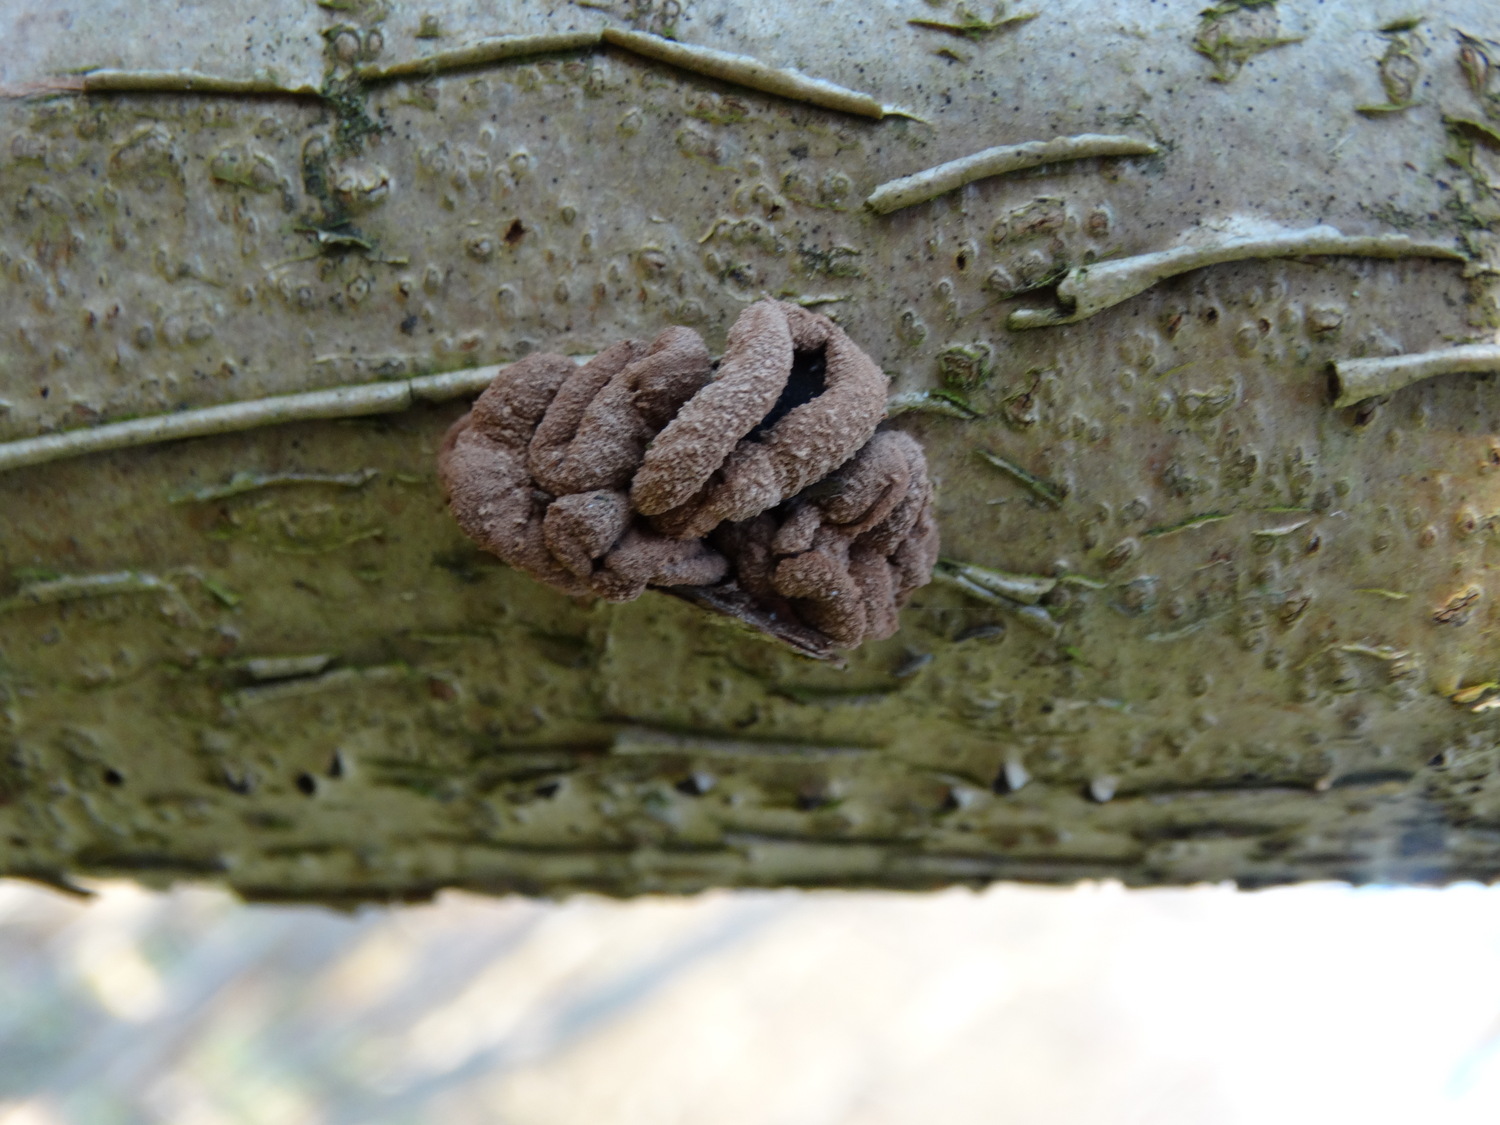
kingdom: Fungi
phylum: Ascomycota
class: Leotiomycetes
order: Helotiales
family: Cenangiaceae
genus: Encoelia
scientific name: Encoelia furfuracea
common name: hassel-læderskive
